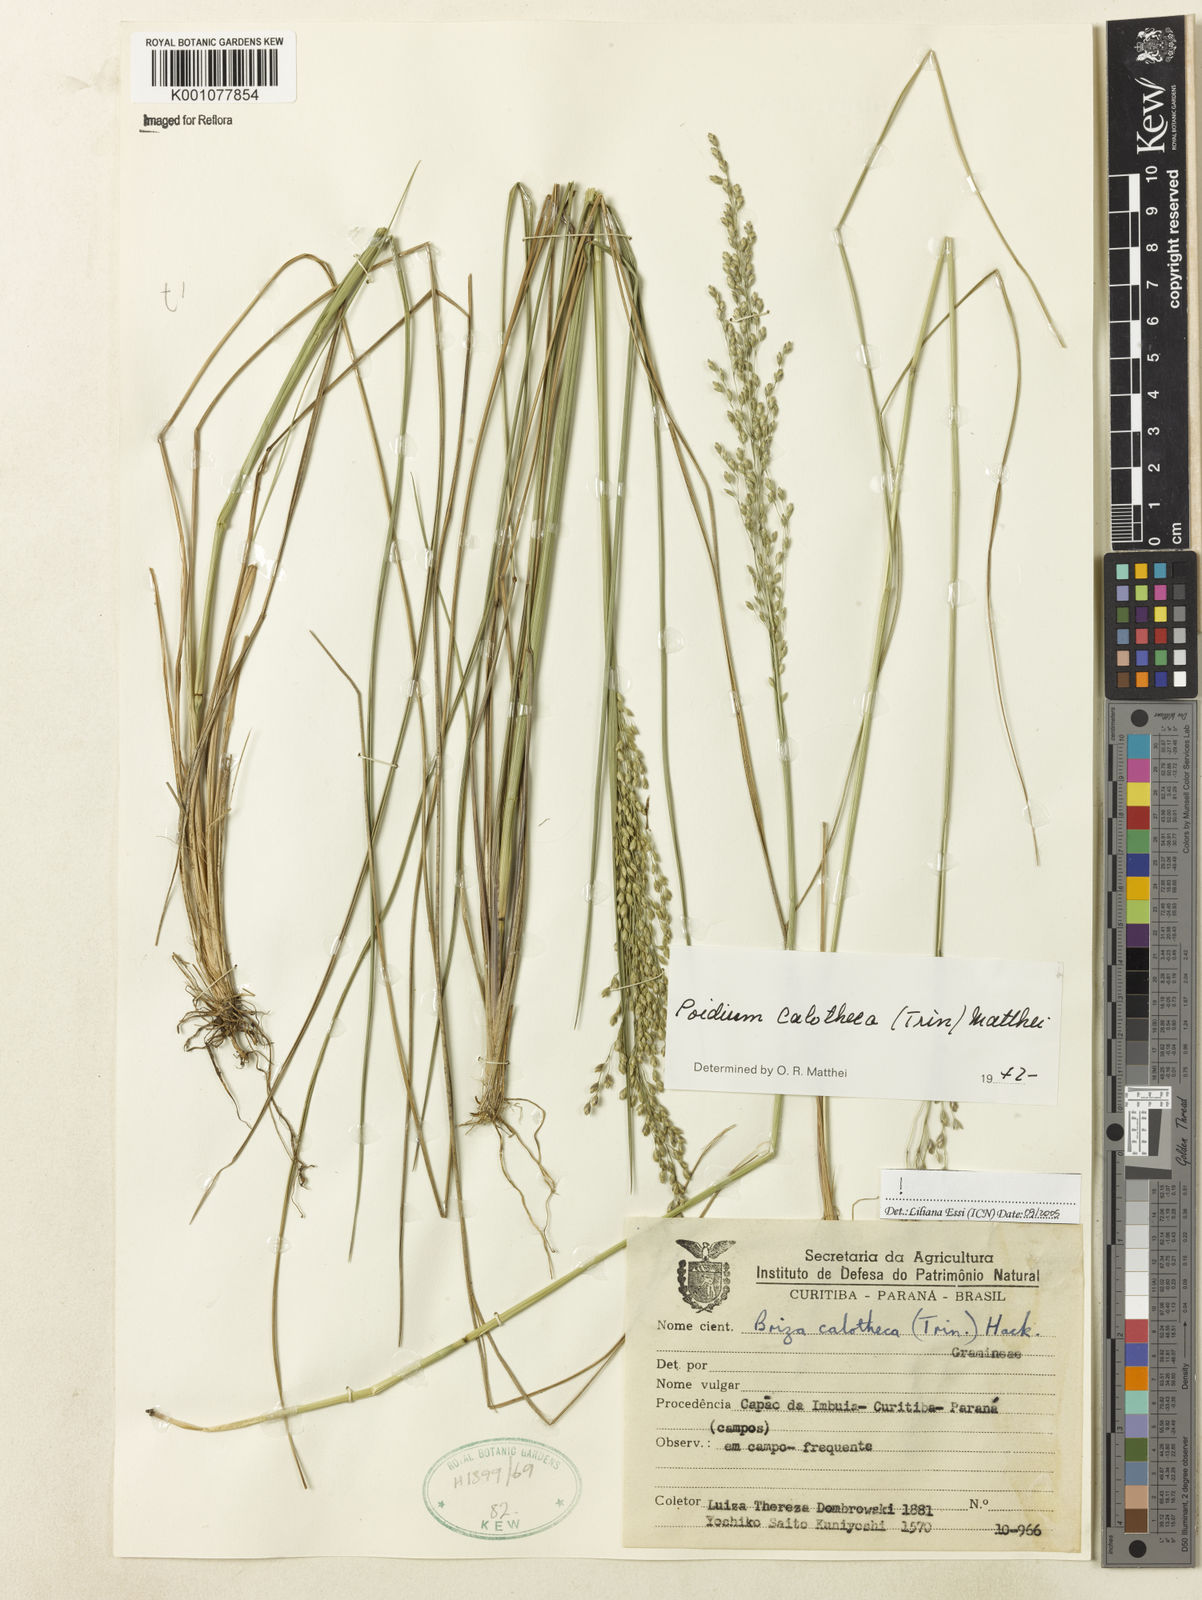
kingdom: Plantae
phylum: Tracheophyta
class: Liliopsida
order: Poales
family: Poaceae
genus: Poidium
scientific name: Poidium calotheca
